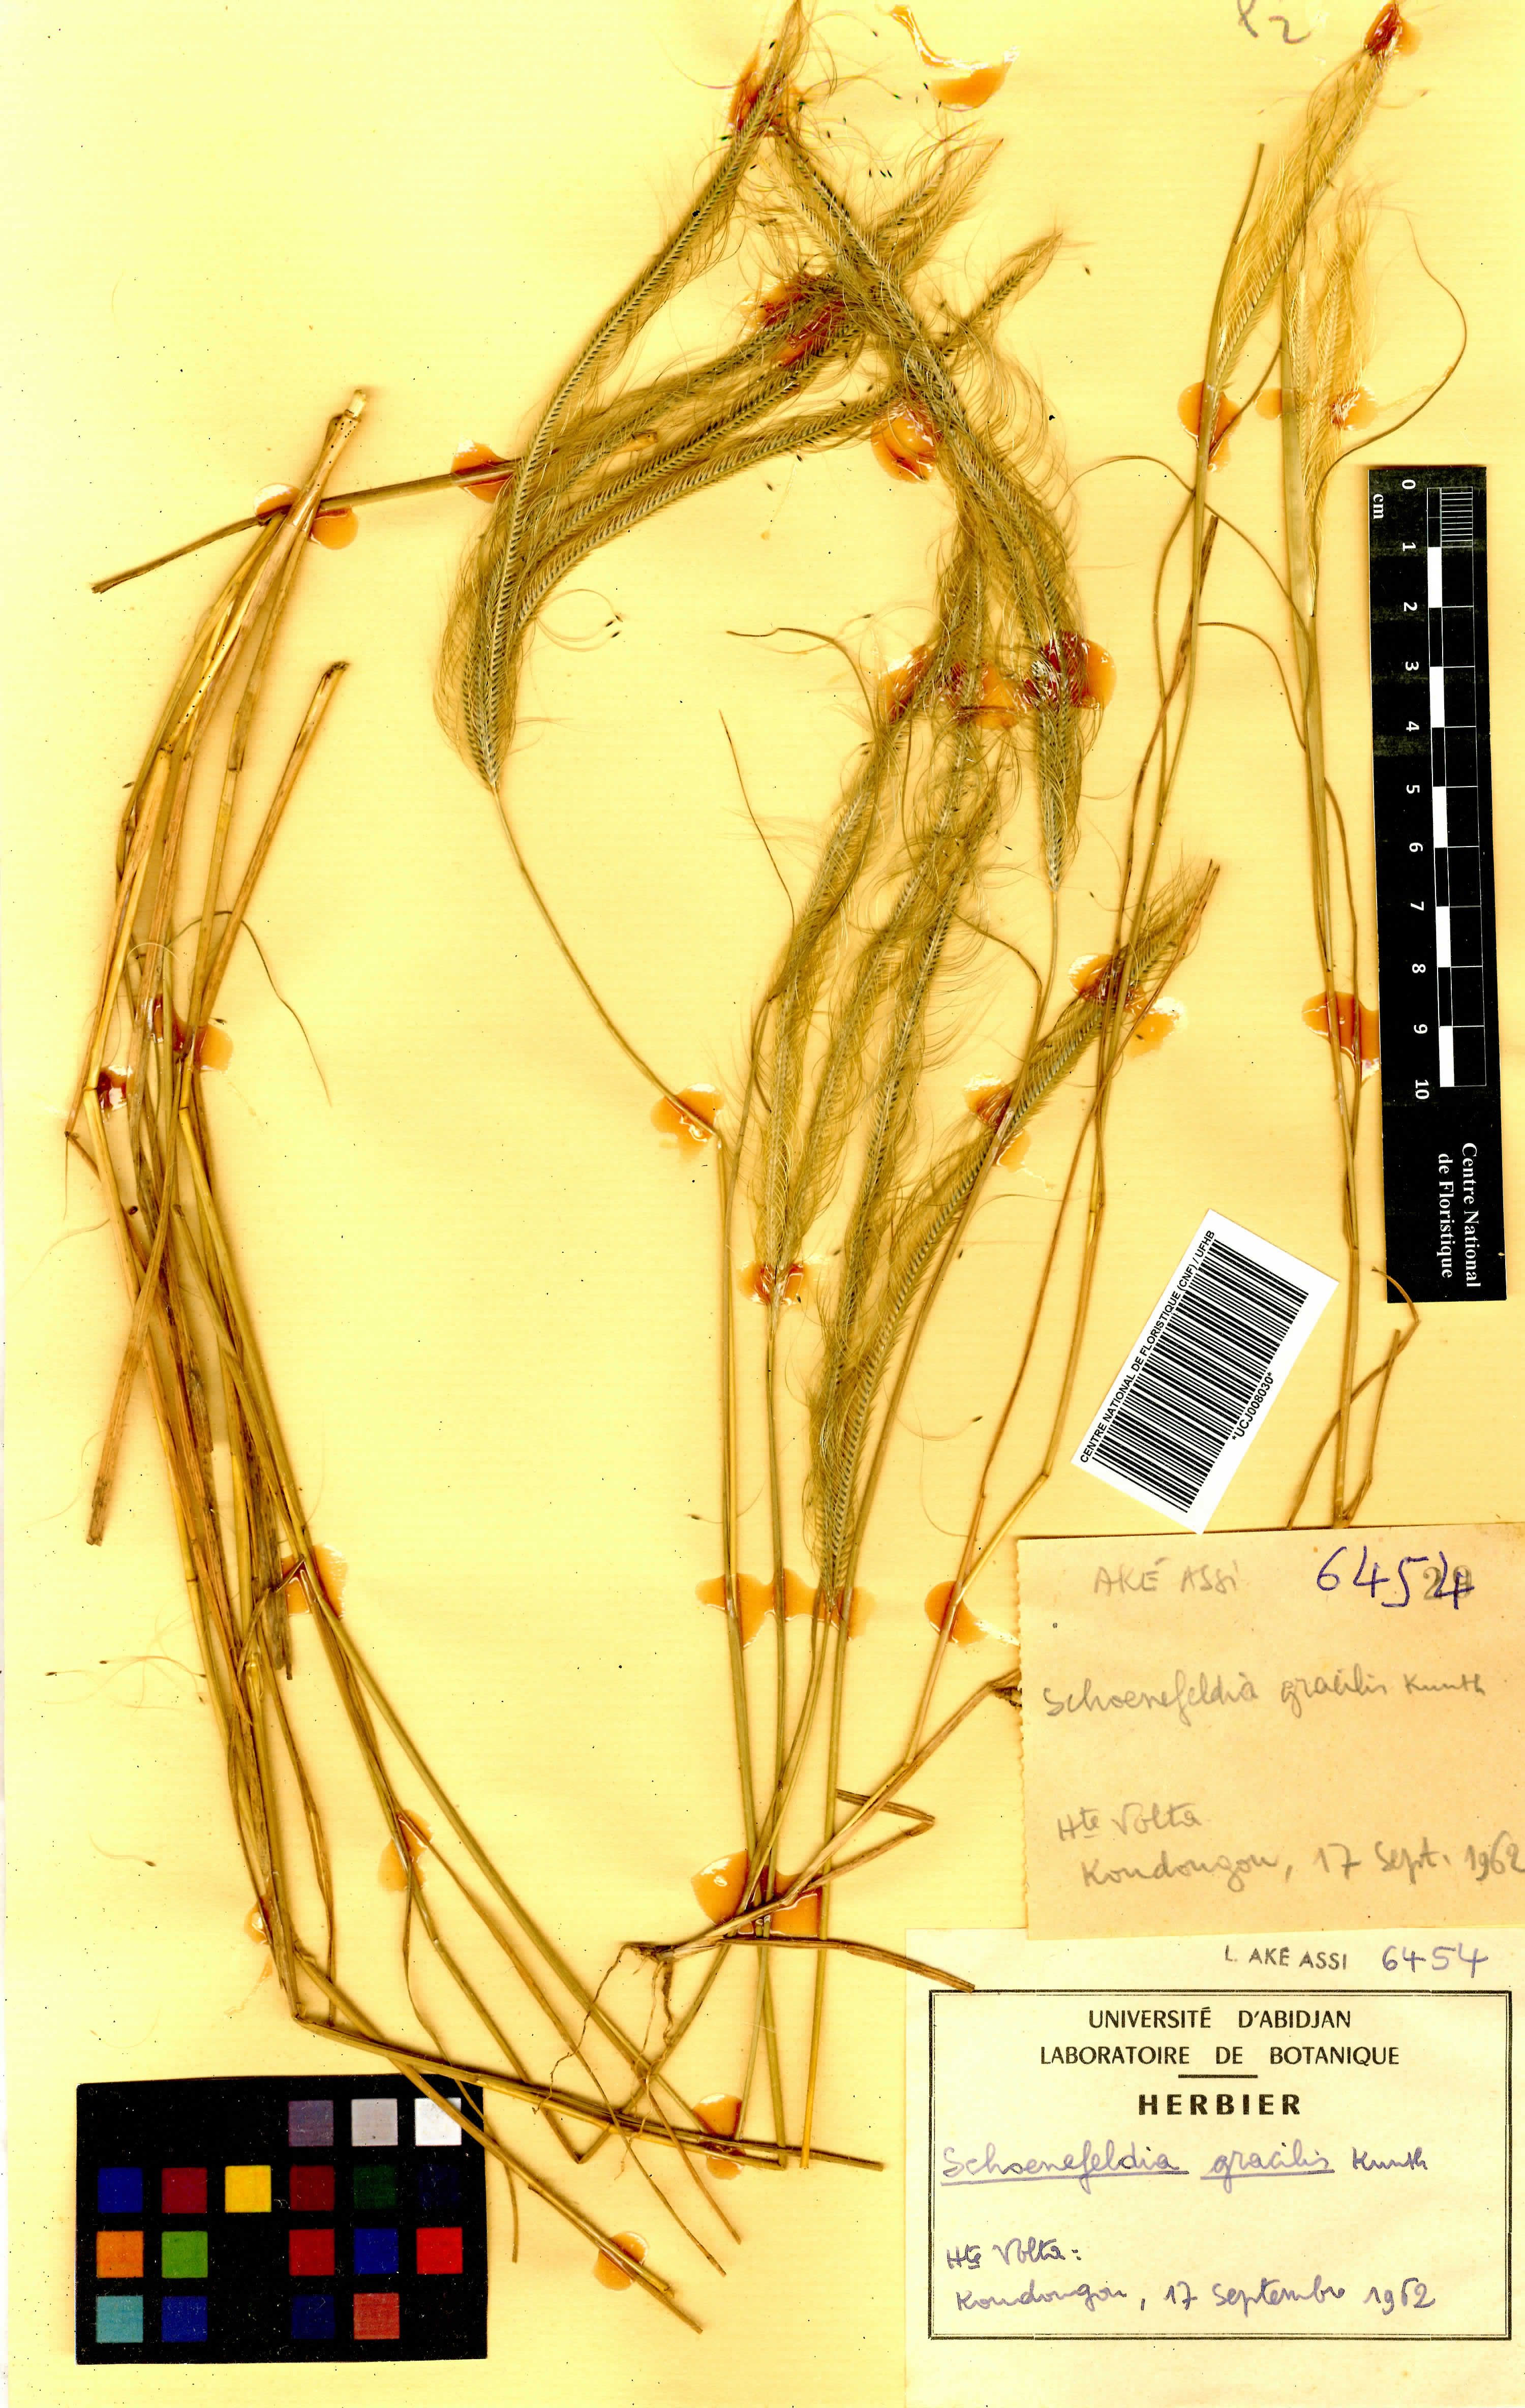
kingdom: Plantae
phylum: Tracheophyta
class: Liliopsida
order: Poales
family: Poaceae
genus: Schoenefeldia
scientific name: Schoenefeldia gracilis
